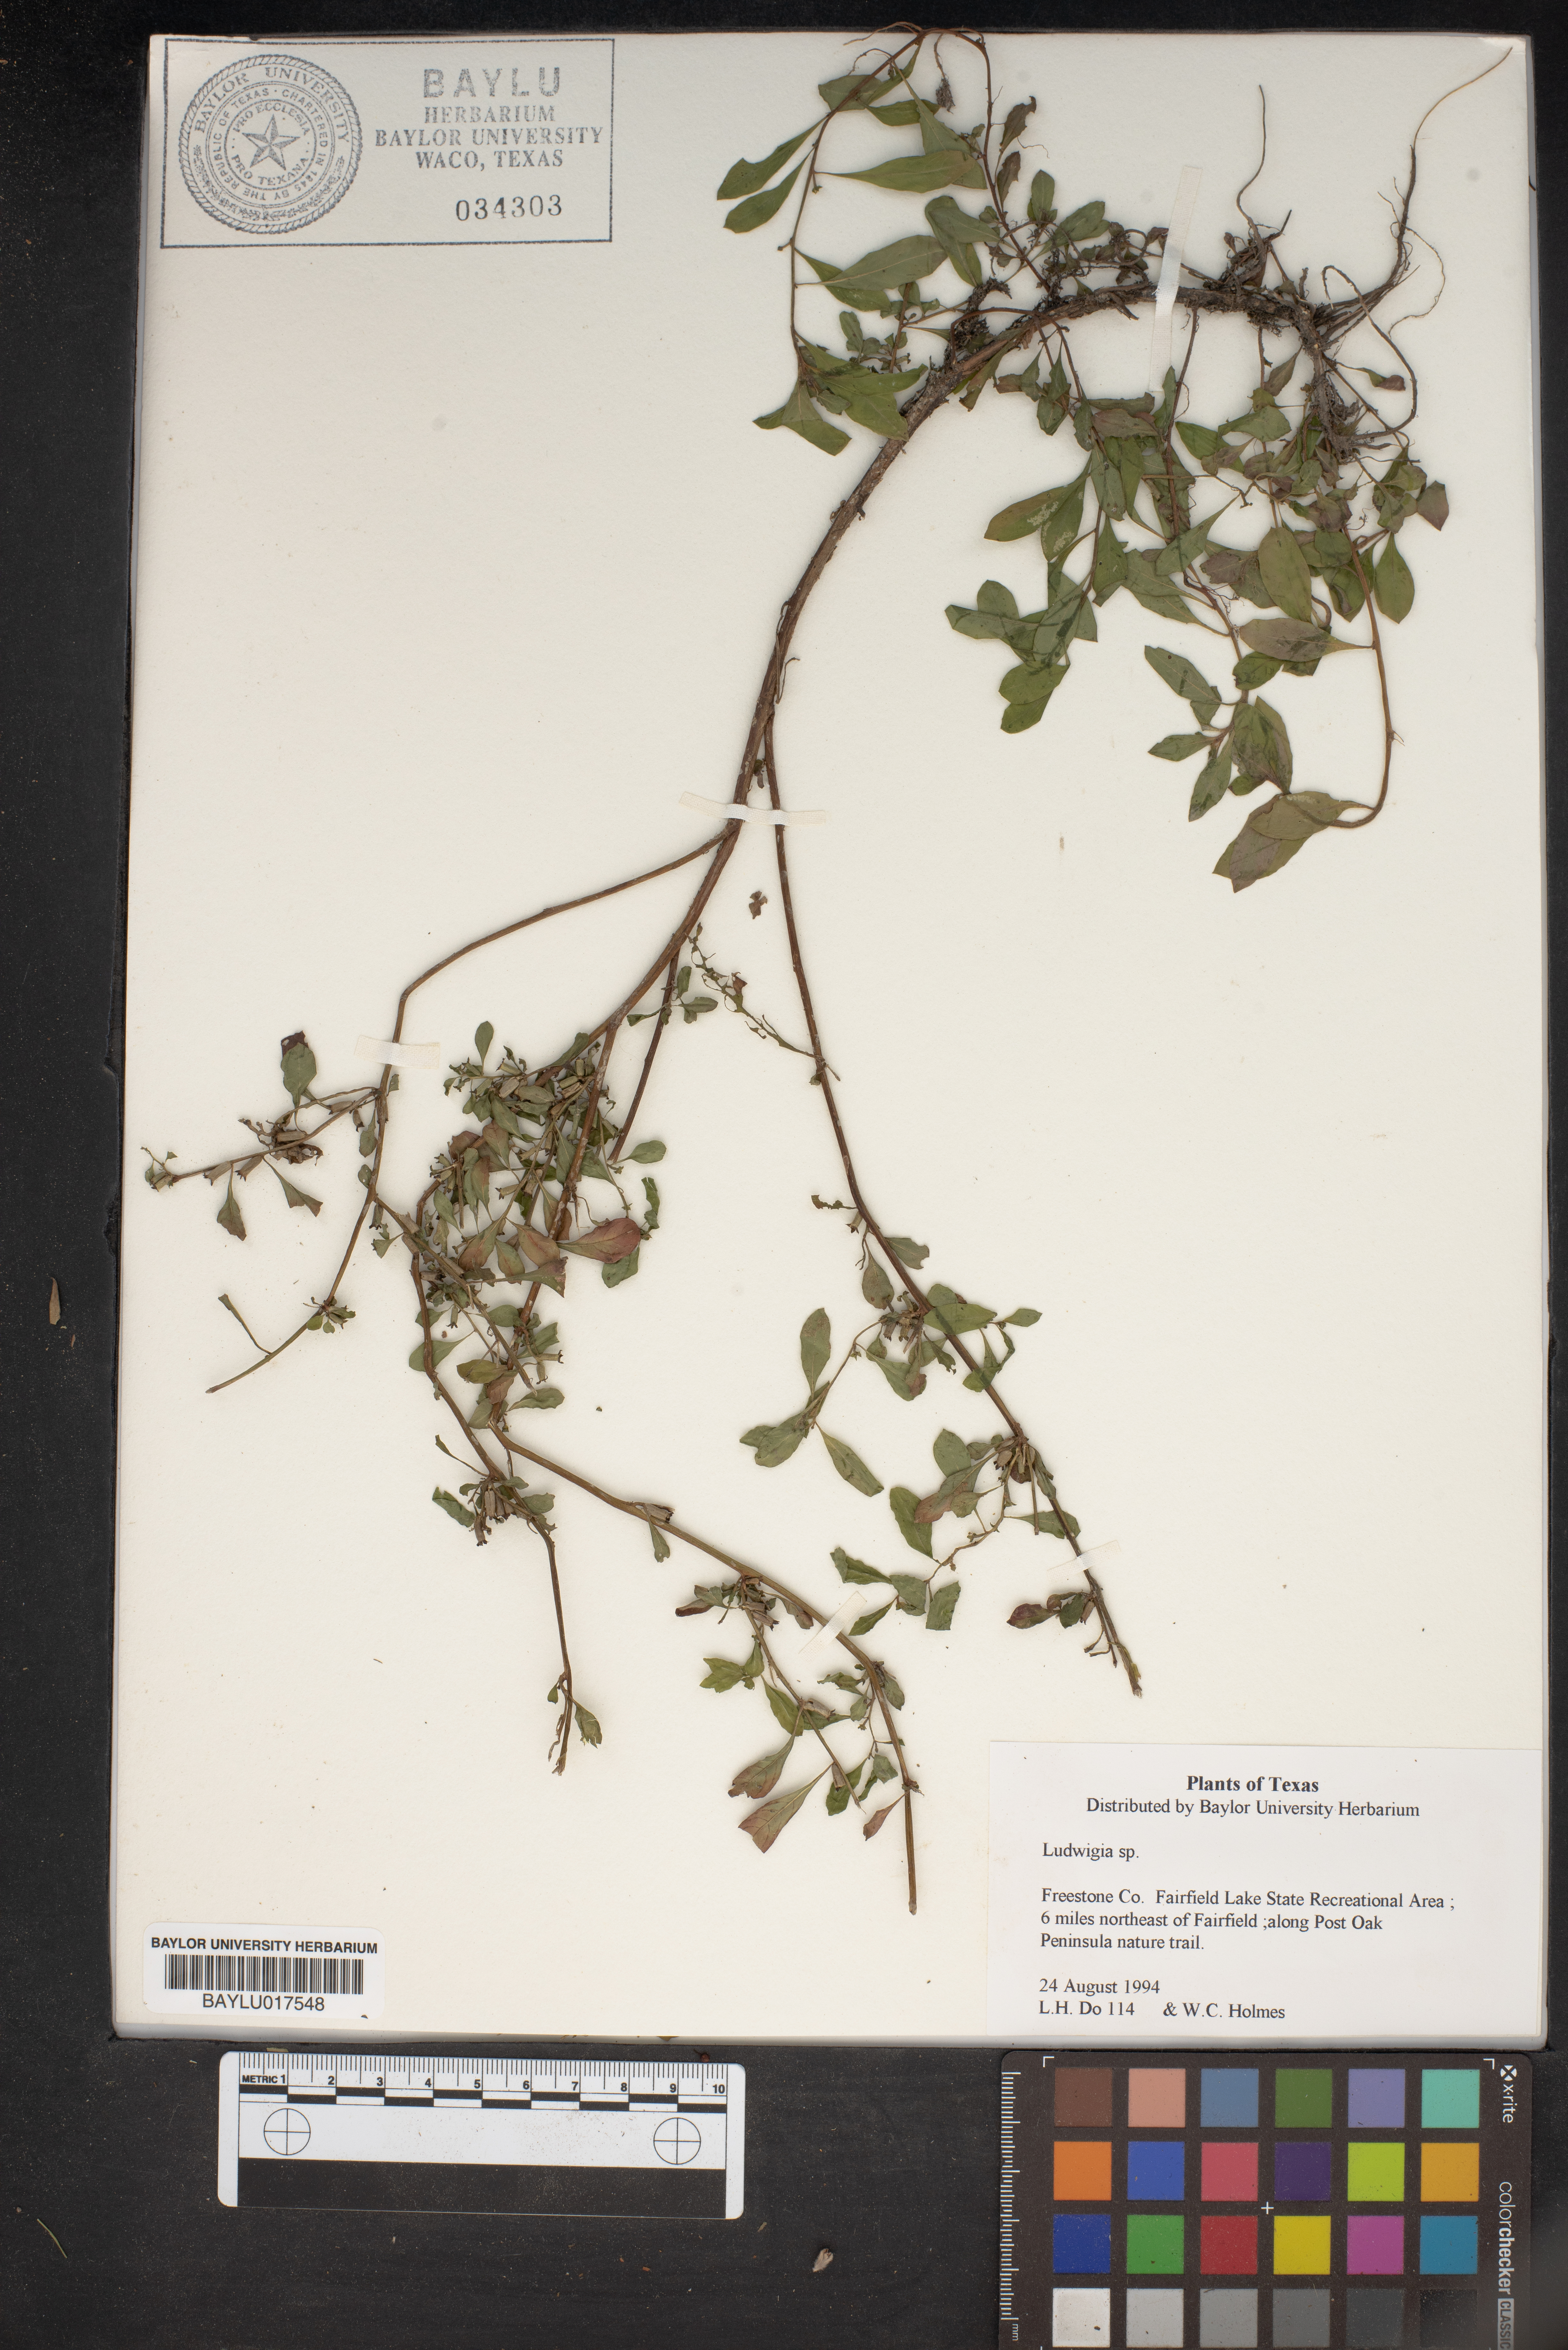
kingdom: Plantae
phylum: Tracheophyta
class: Magnoliopsida
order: Myrtales
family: Onagraceae
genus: Ludwigia
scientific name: Ludwigia
